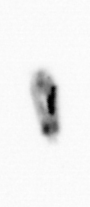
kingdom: Animalia
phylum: Arthropoda
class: Copepoda
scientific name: Copepoda
